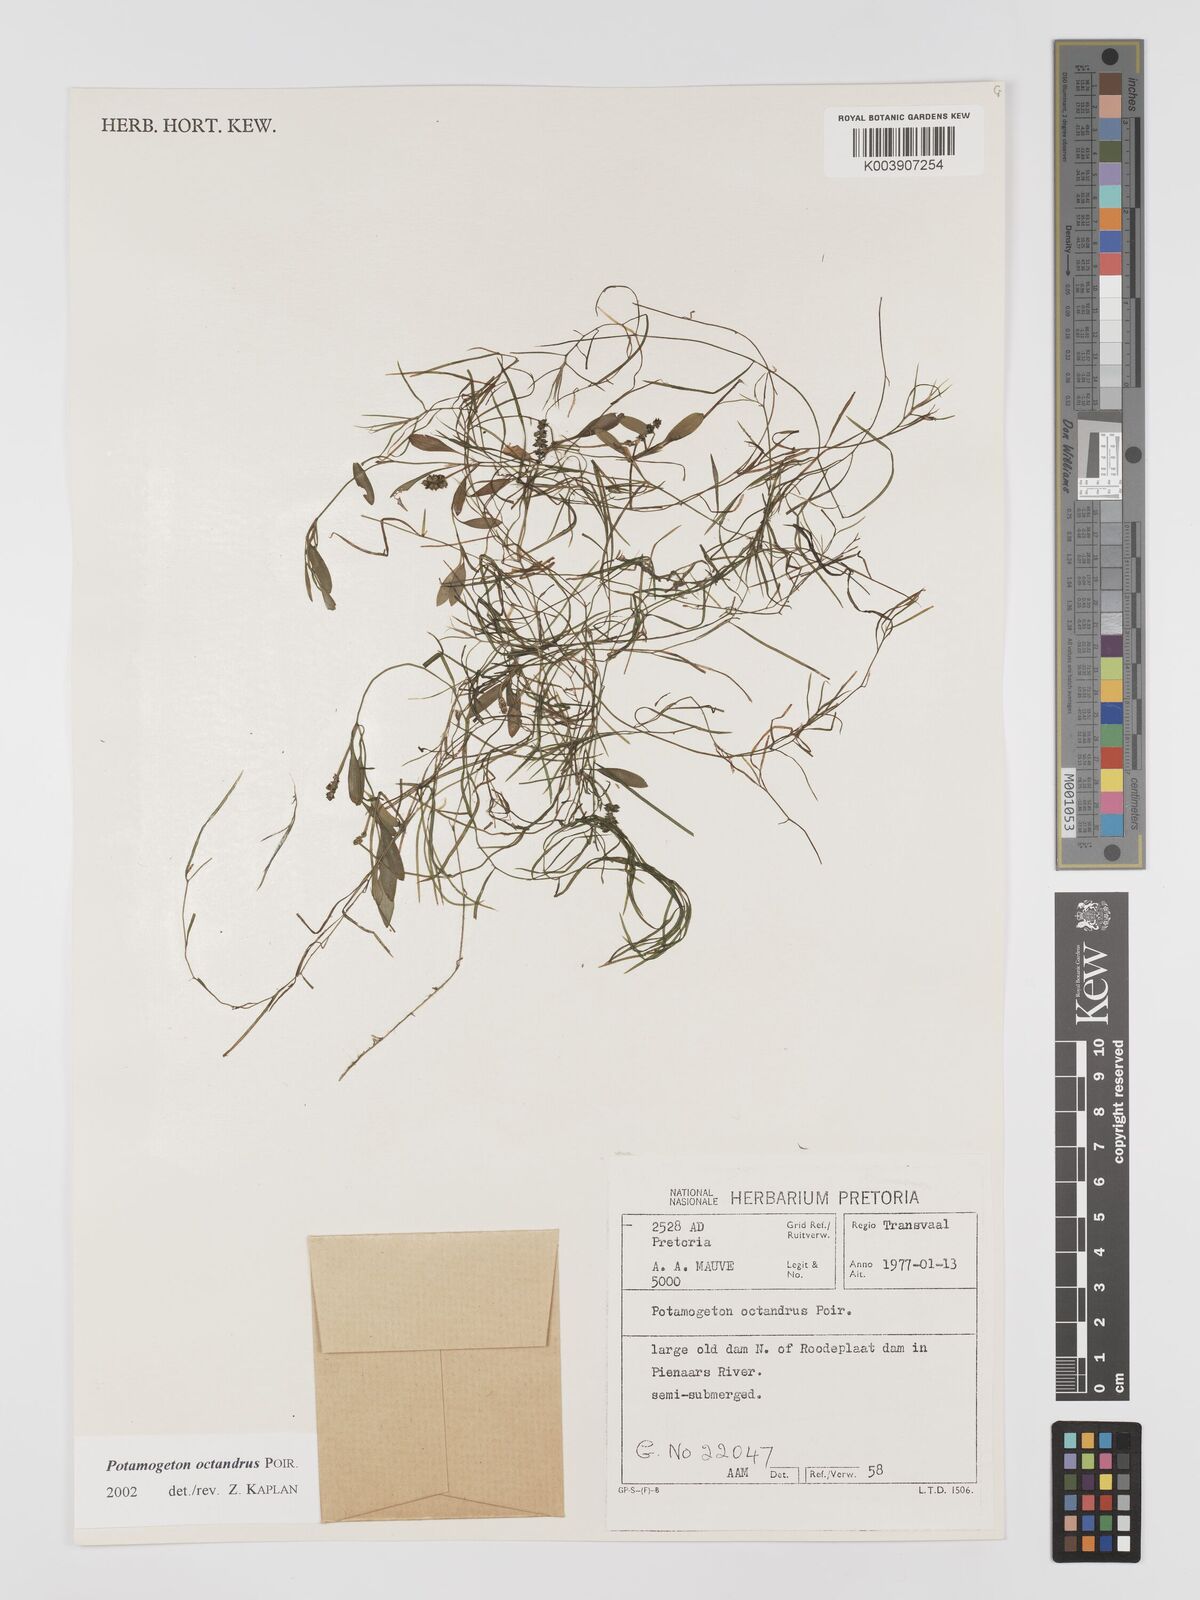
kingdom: Plantae
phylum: Tracheophyta
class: Liliopsida
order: Alismatales
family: Potamogetonaceae
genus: Potamogeton
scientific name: Potamogeton octandrus
